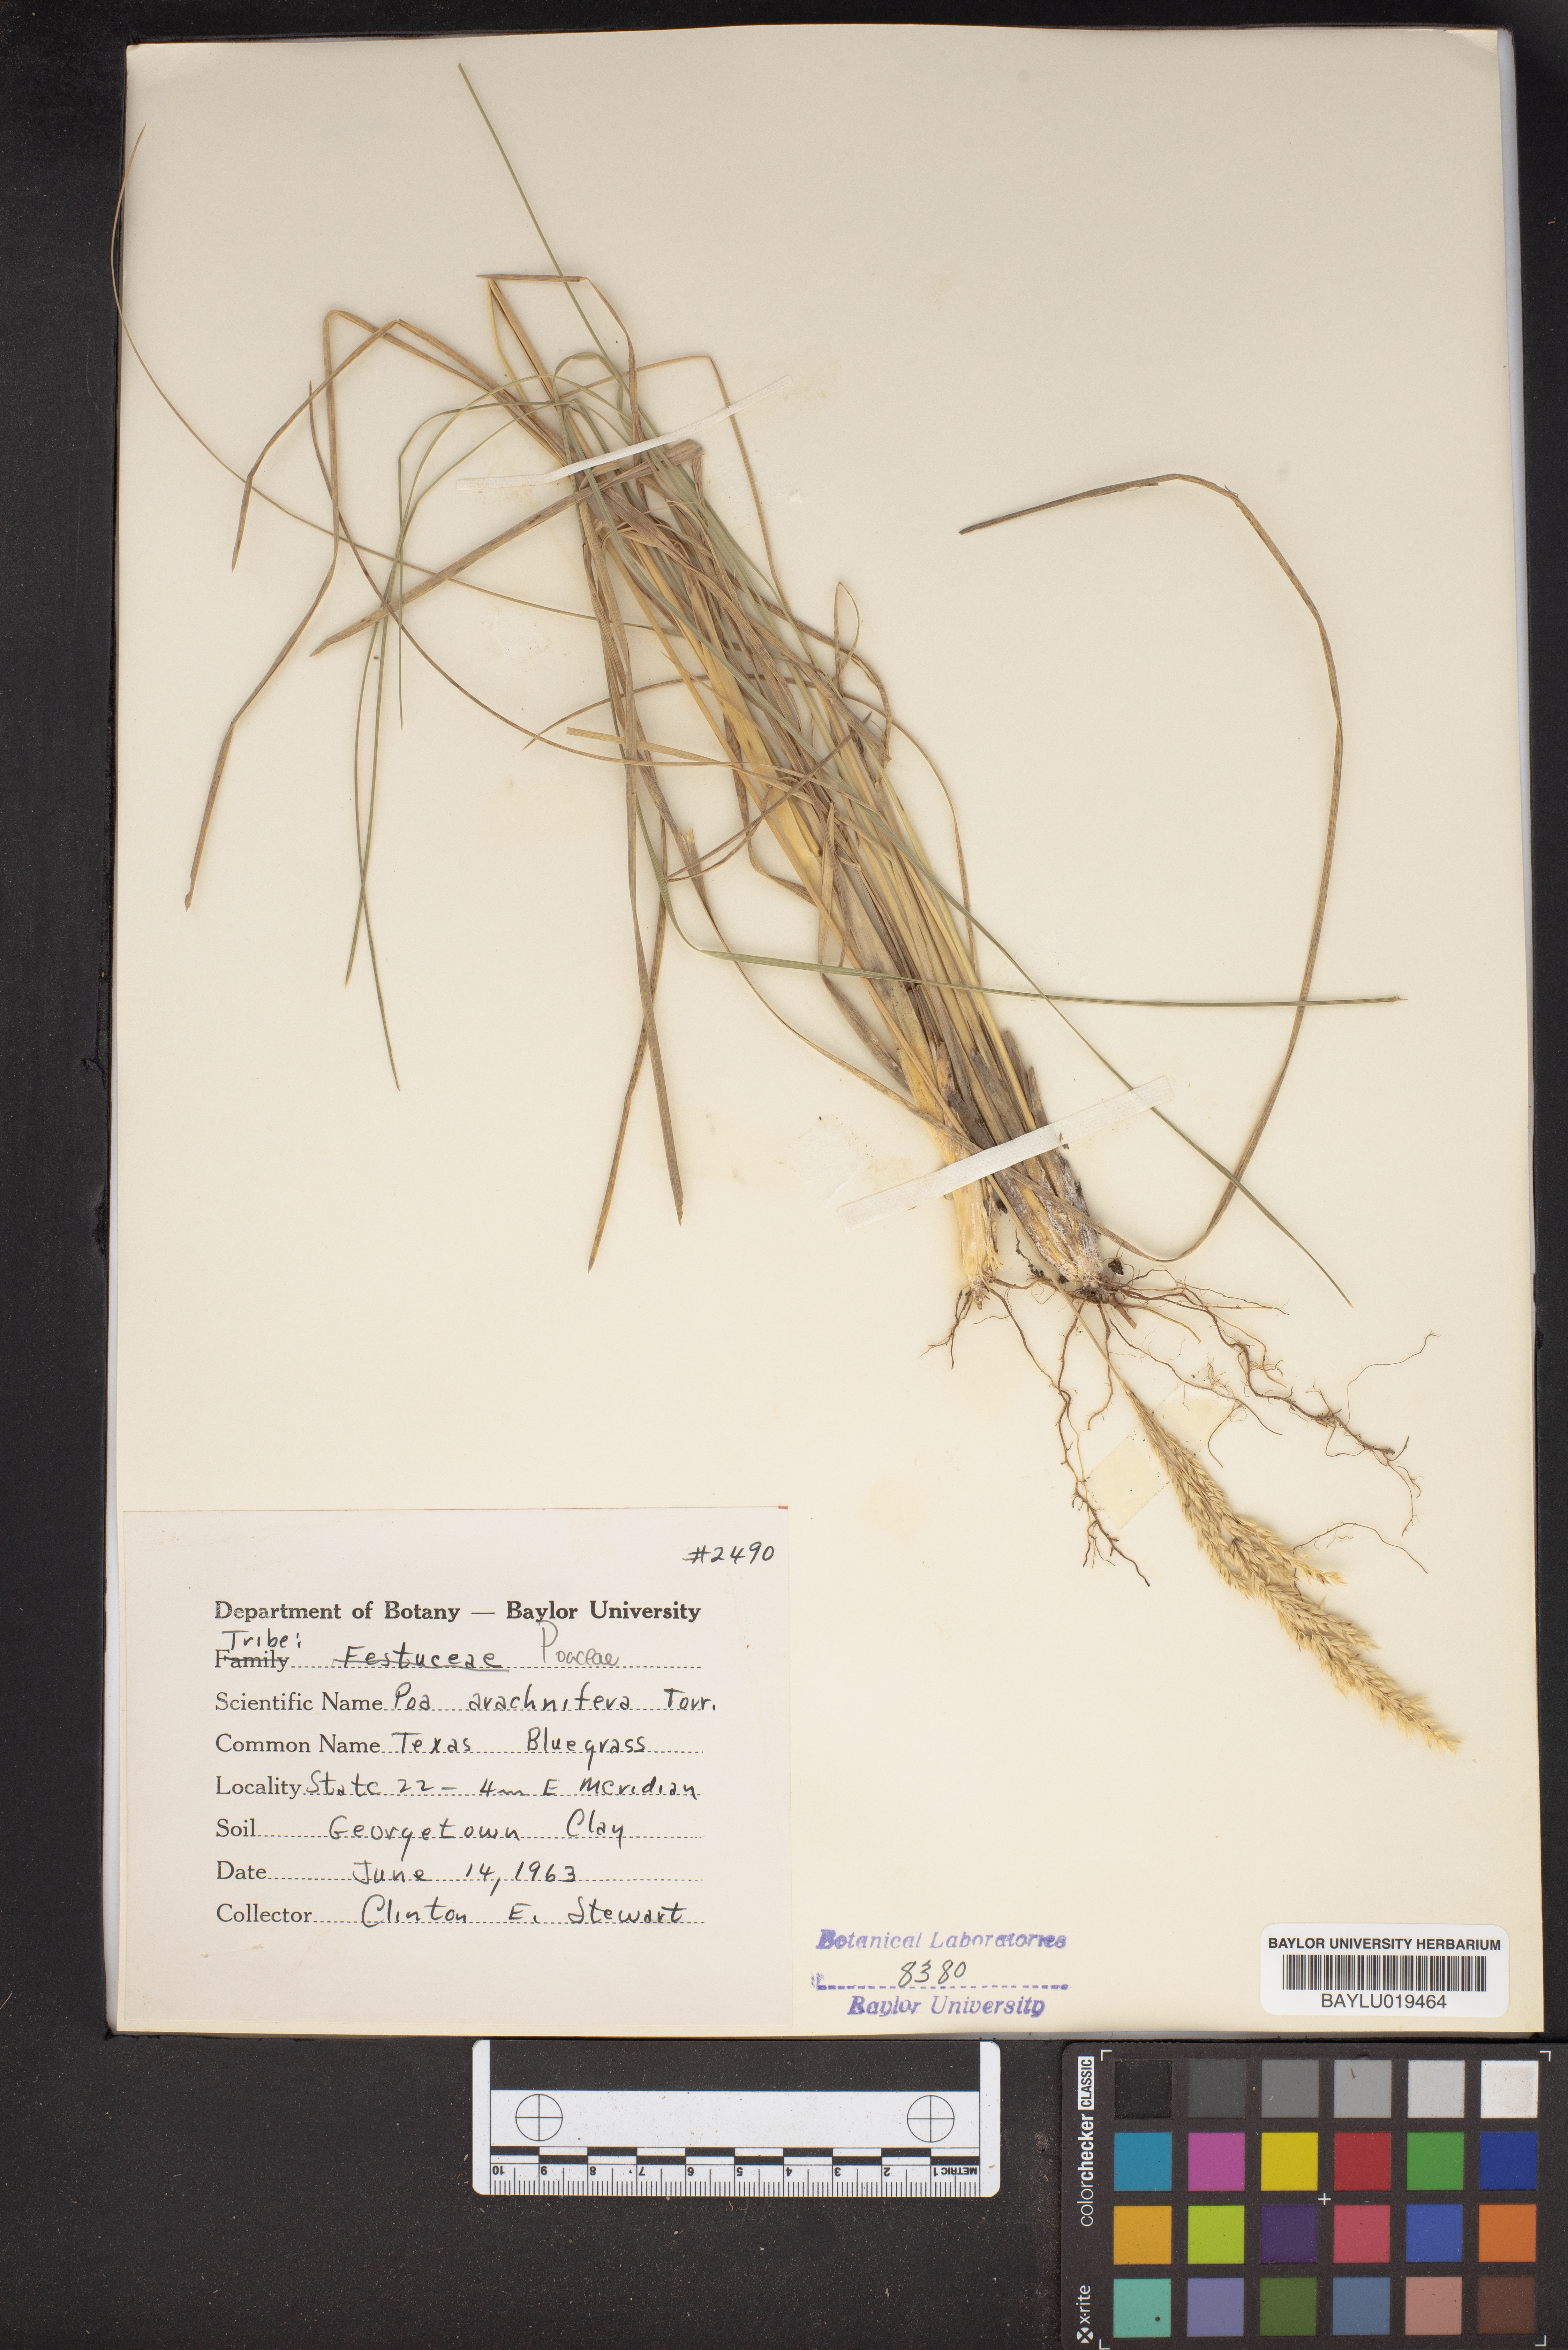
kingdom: Plantae
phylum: Tracheophyta
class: Liliopsida
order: Poales
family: Poaceae
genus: Poa
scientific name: Poa arachnifera
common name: Texas bluegrass
